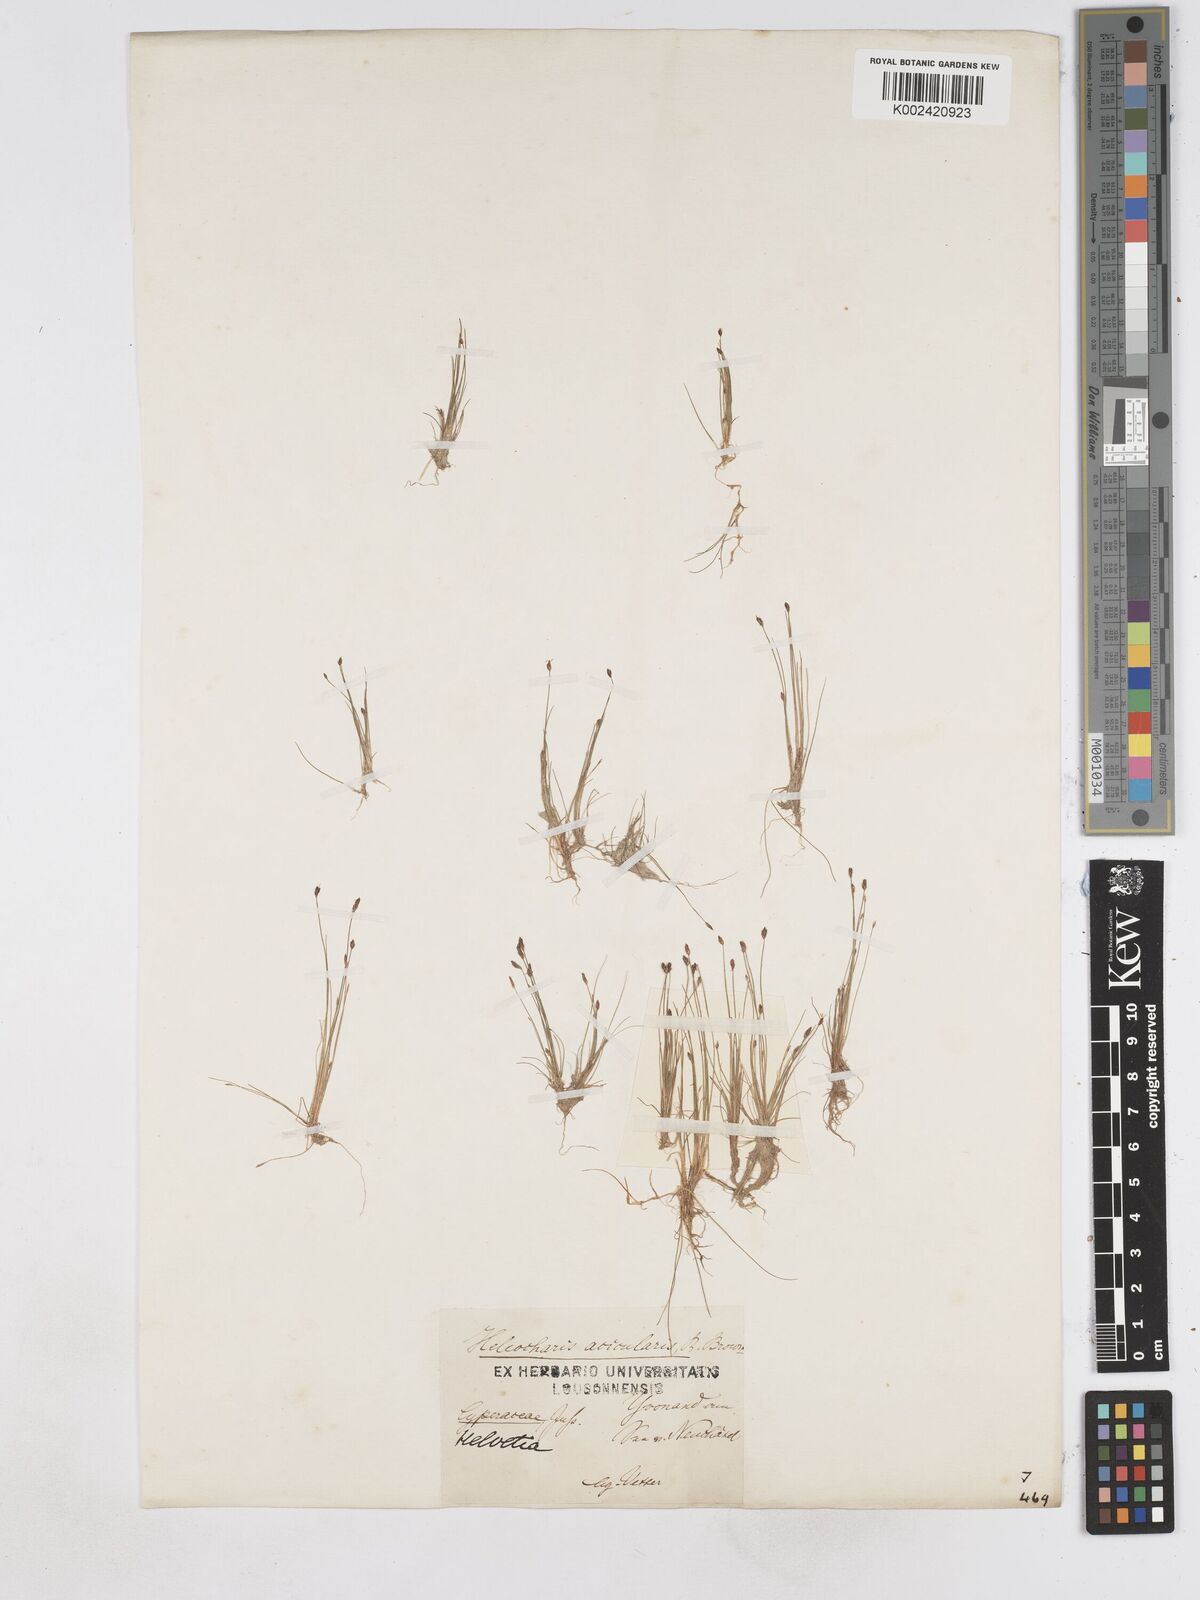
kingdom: Plantae
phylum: Tracheophyta
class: Liliopsida
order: Poales
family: Cyperaceae
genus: Eleocharis
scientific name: Eleocharis acicularis
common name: Needle spike-rush
